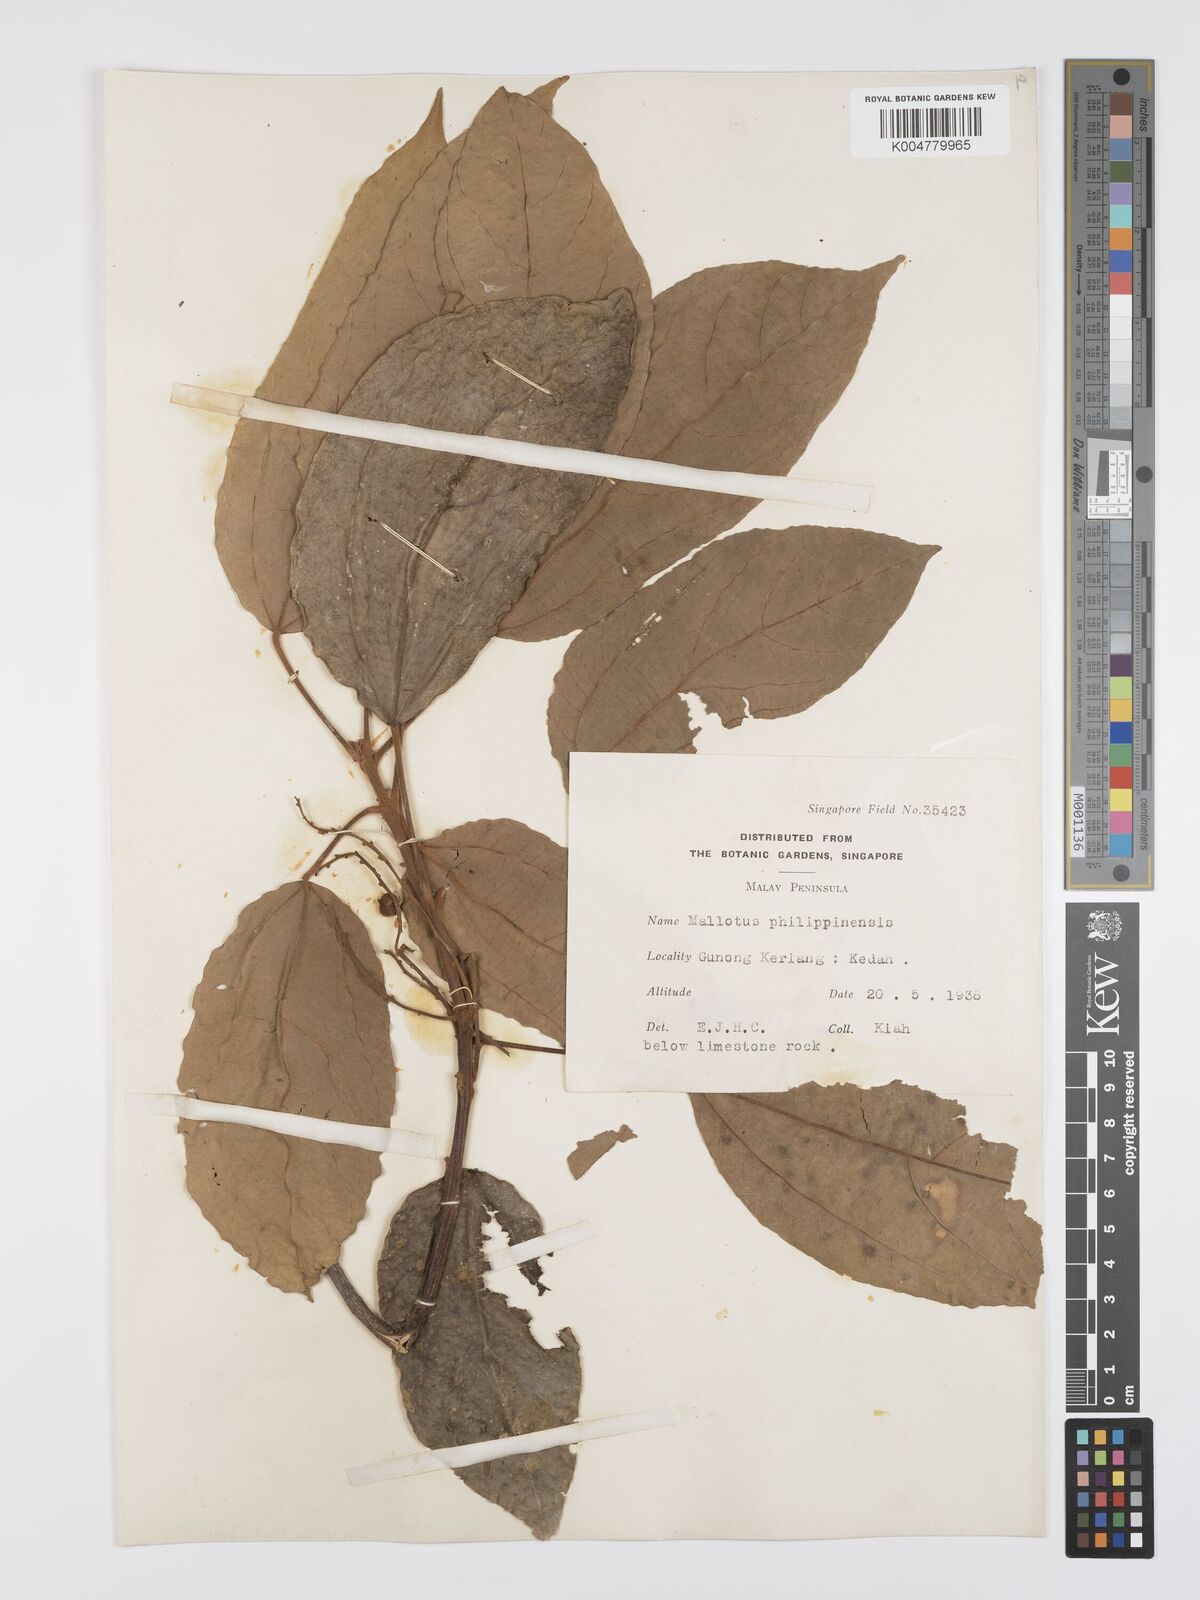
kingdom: Plantae
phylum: Tracheophyta
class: Magnoliopsida
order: Malpighiales
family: Euphorbiaceae
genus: Mallotus
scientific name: Mallotus philippensis
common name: Kamala tree
